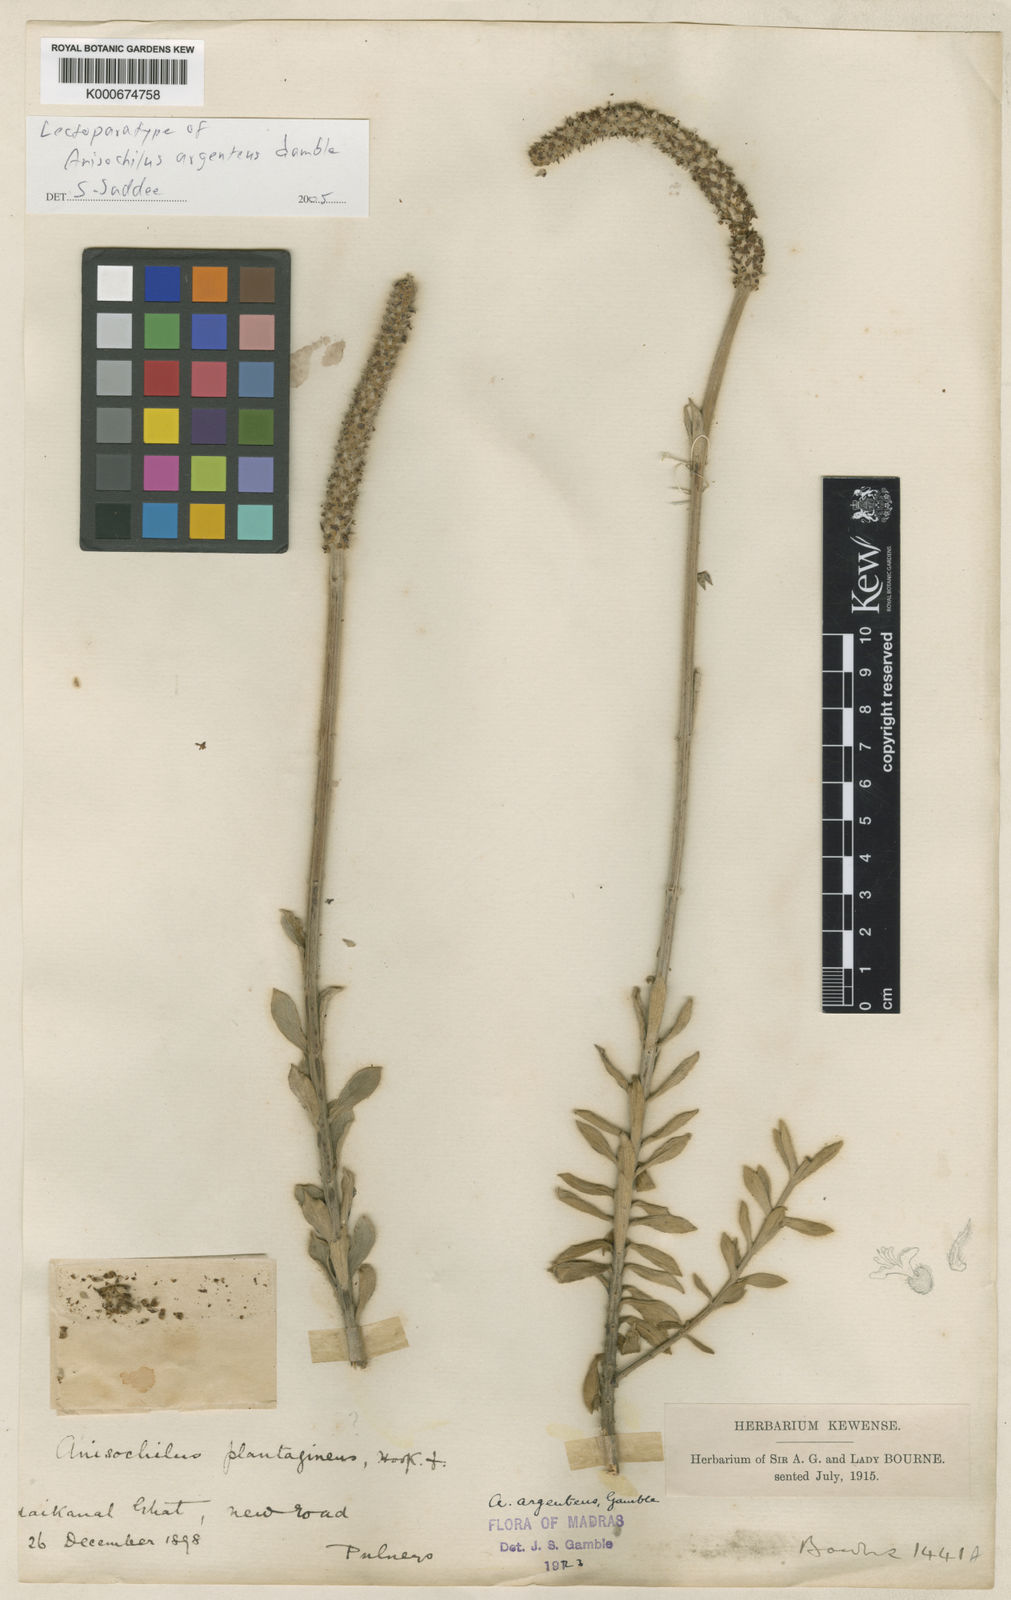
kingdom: Plantae
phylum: Tracheophyta
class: Magnoliopsida
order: Lamiales
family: Lamiaceae
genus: Coleus
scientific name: Coleus argenteus
